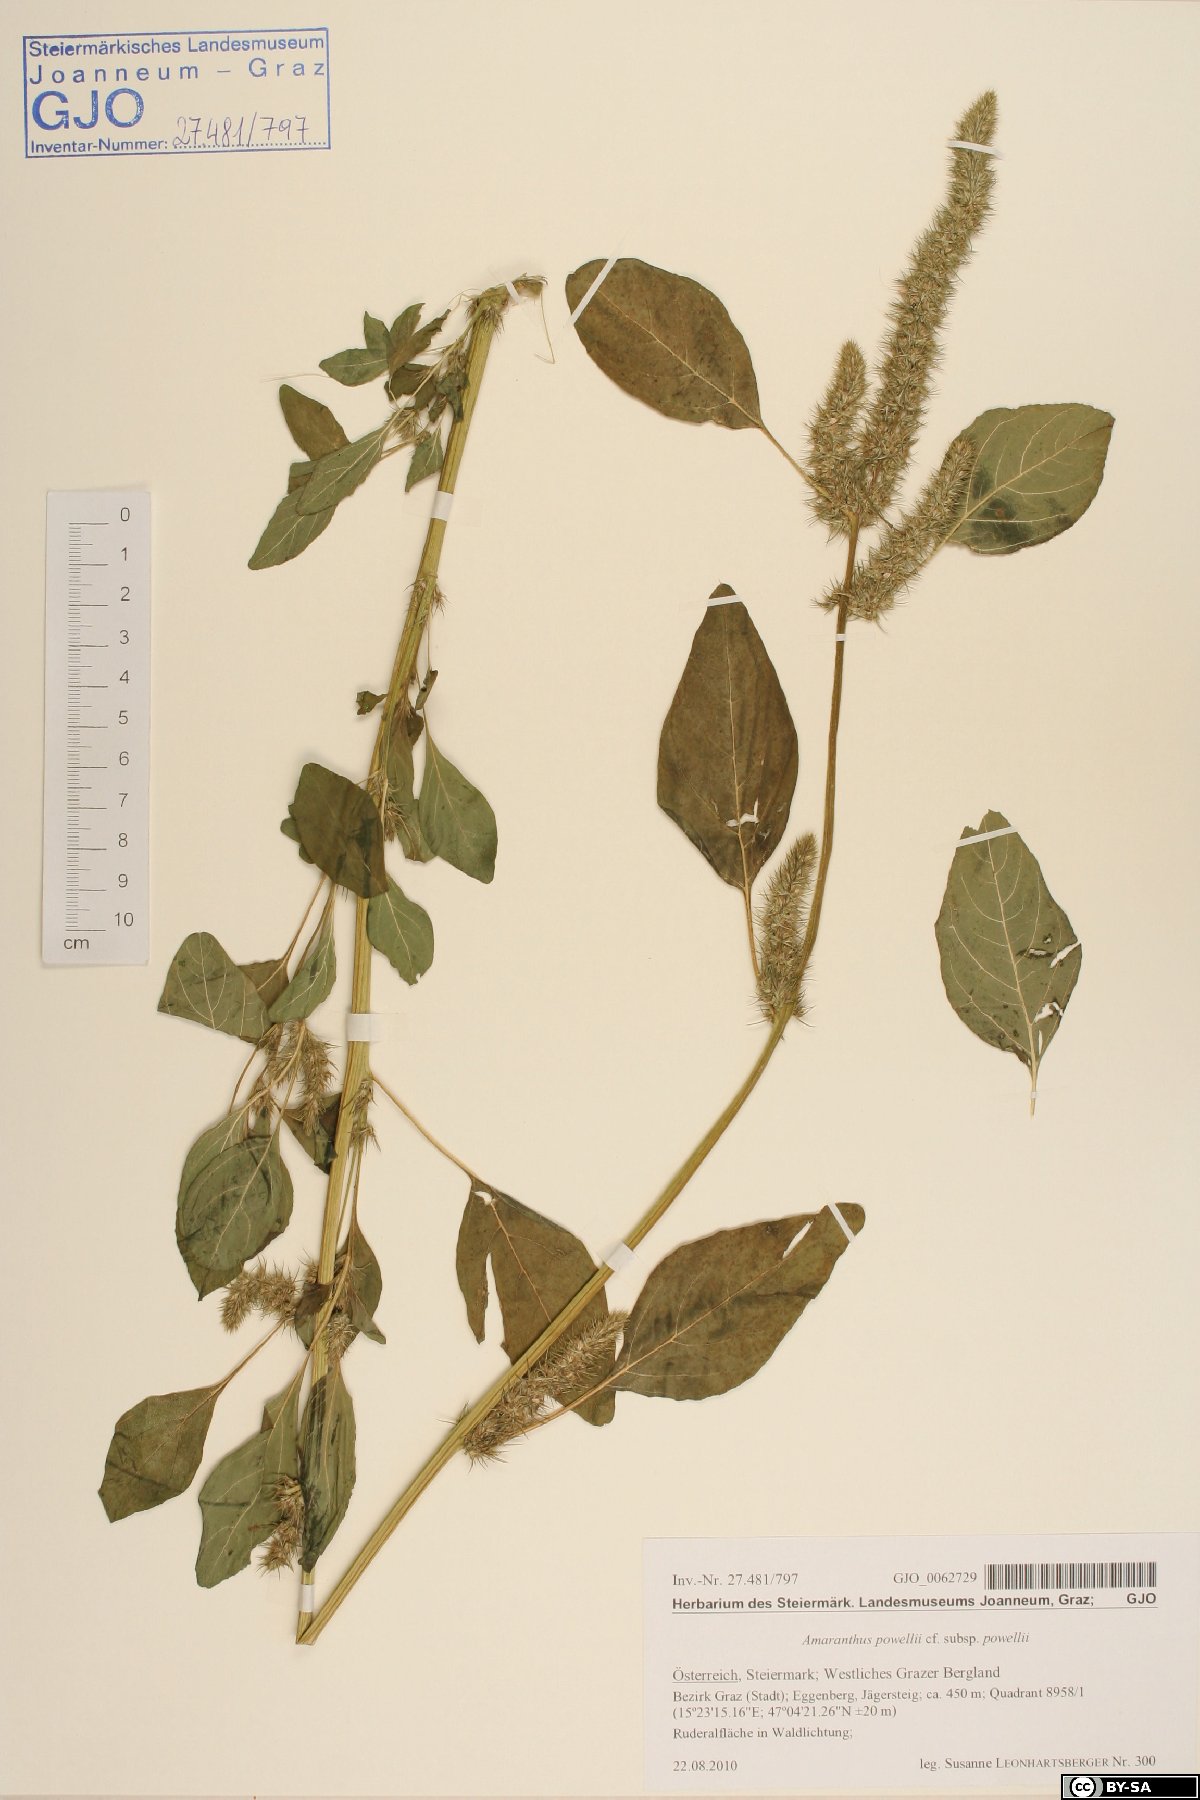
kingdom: Plantae
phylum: Tracheophyta
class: Magnoliopsida
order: Caryophyllales
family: Amaranthaceae
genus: Amaranthus
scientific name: Amaranthus powellii
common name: Powell's amaranth
